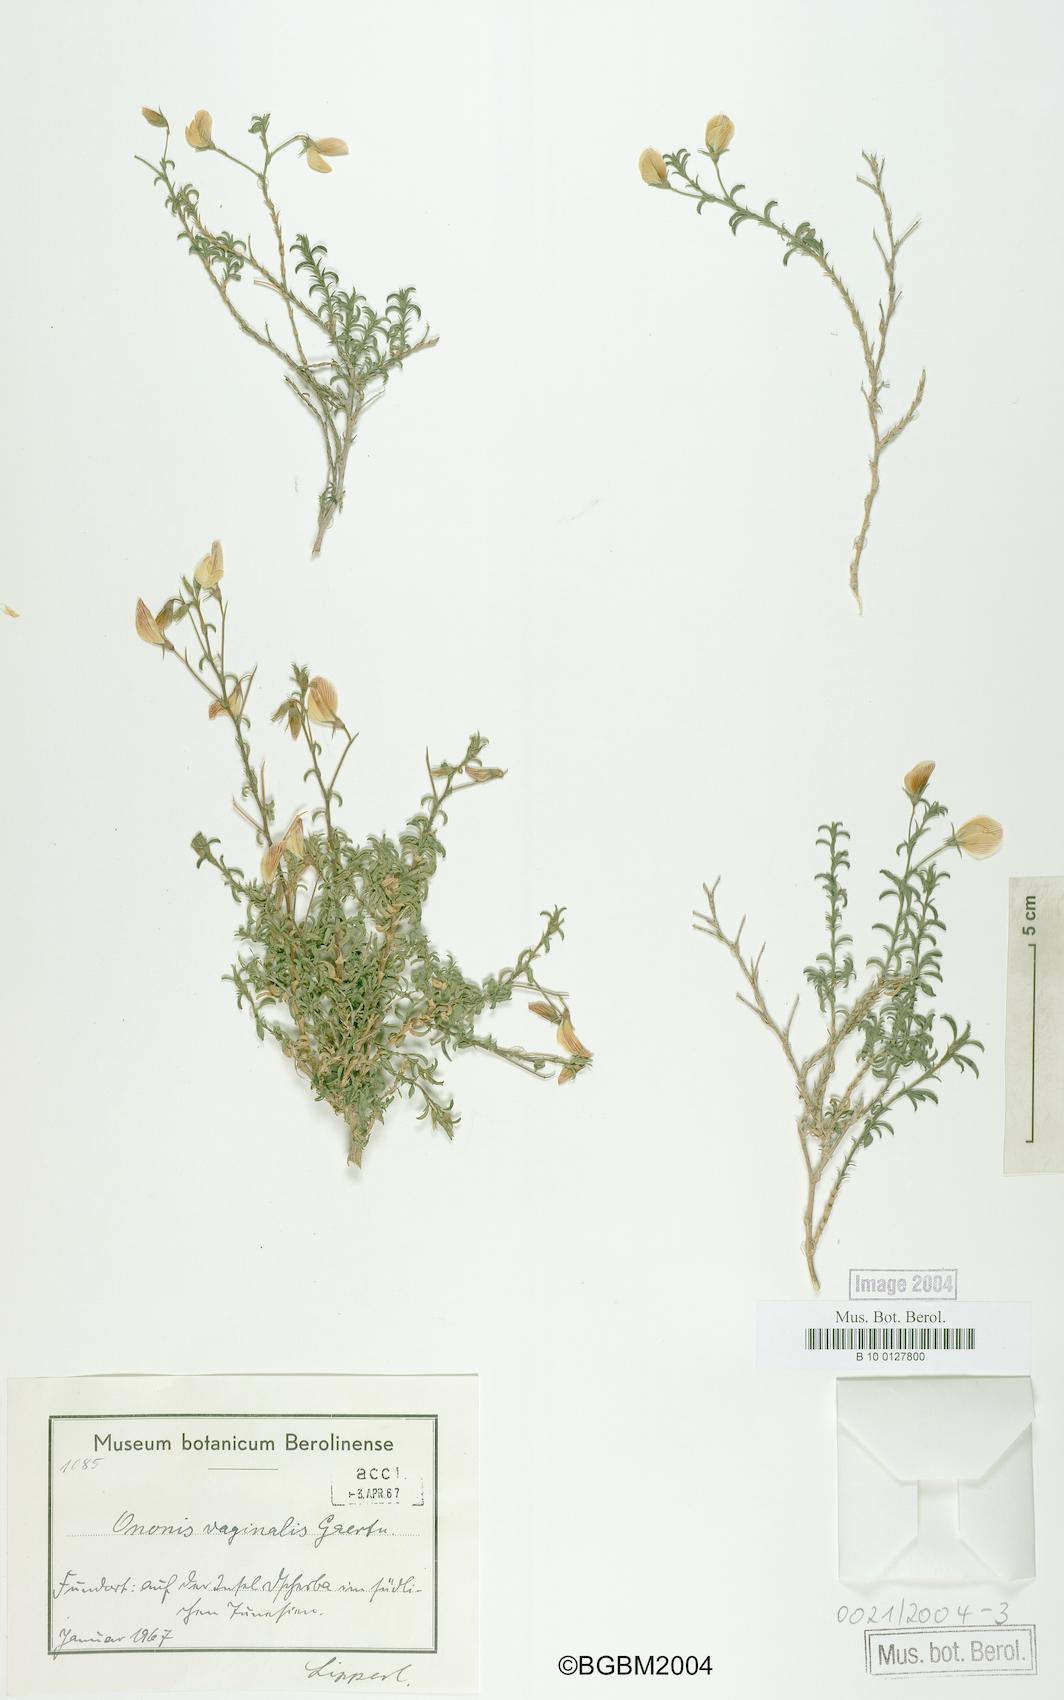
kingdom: Plantae
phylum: Tracheophyta
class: Magnoliopsida
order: Fabales
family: Fabaceae
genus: Ononis
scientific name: Ononis vaginalis
